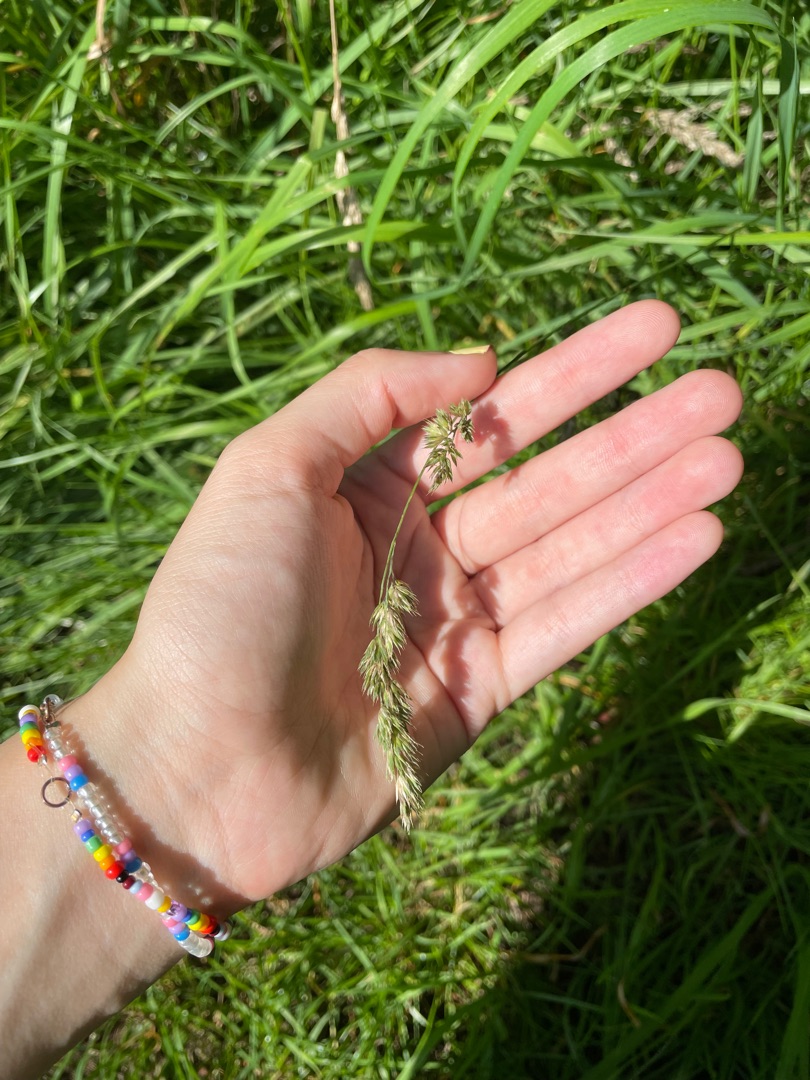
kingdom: Plantae
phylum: Tracheophyta
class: Liliopsida
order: Poales
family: Poaceae
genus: Dactylis
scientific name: Dactylis glomerata
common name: Almindelig hundegræs
